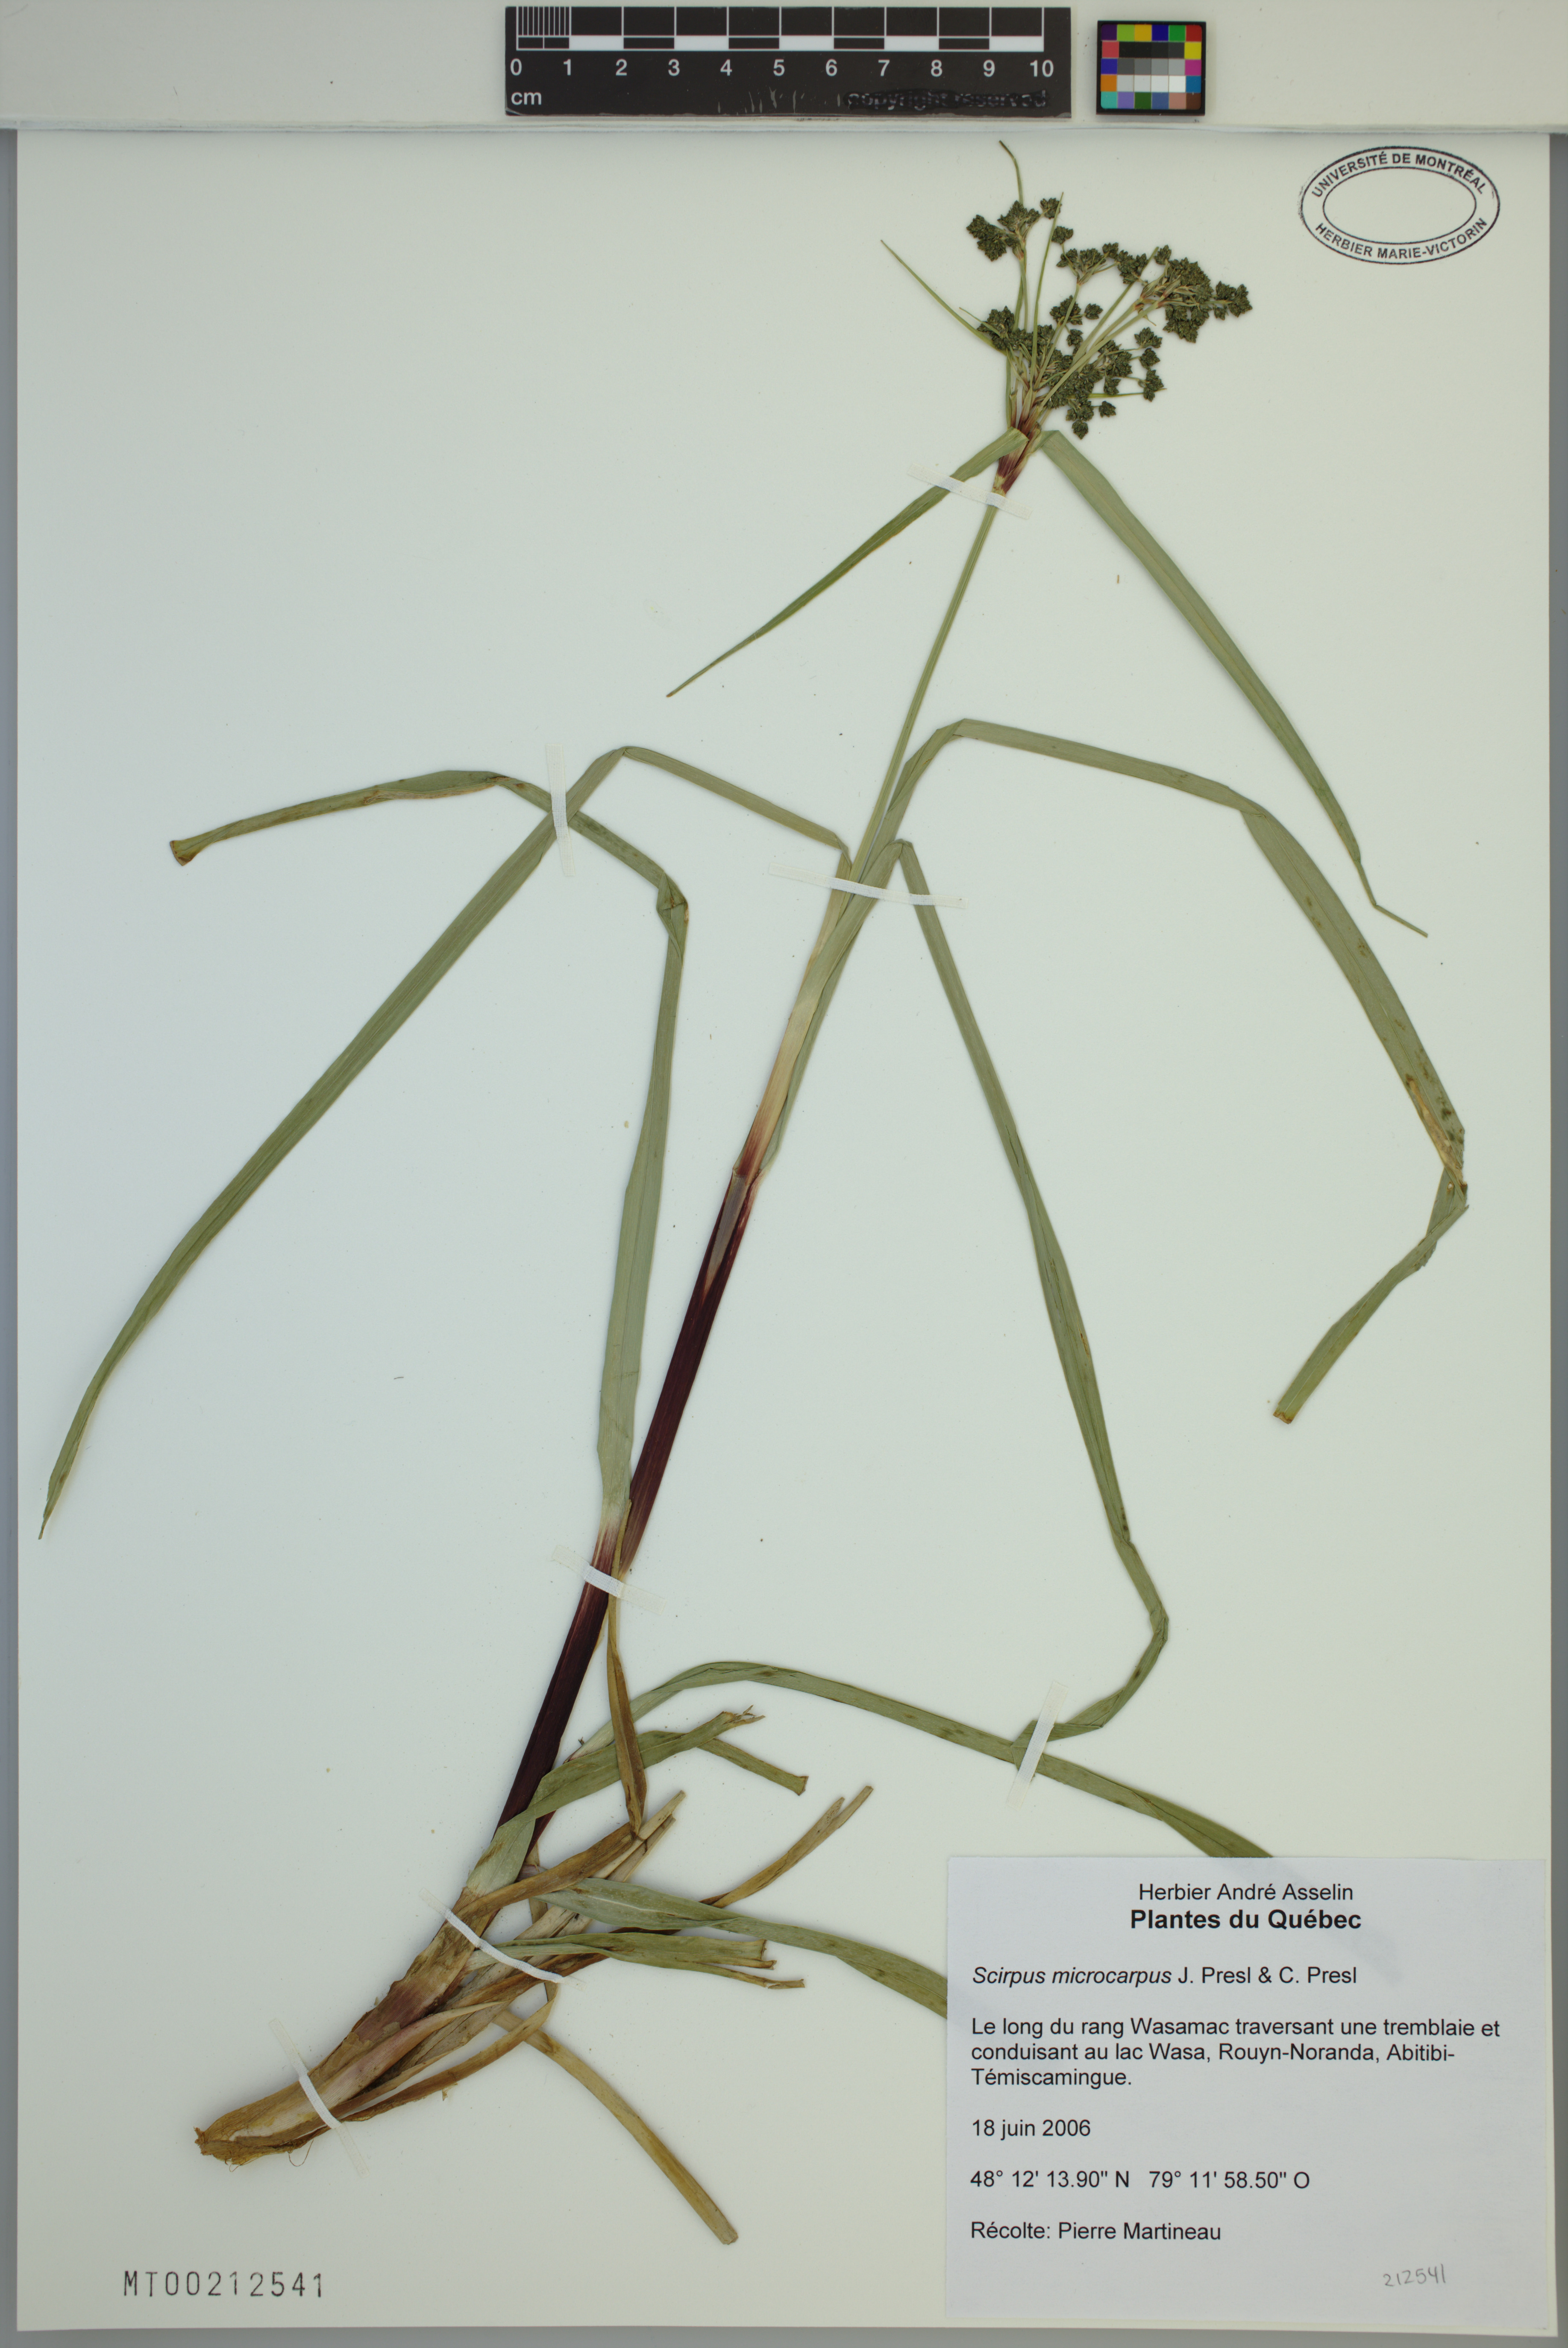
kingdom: Plantae
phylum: Tracheophyta
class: Liliopsida
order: Poales
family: Cyperaceae
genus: Scirpus
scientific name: Scirpus microcarpus
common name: Panicled bulrush
